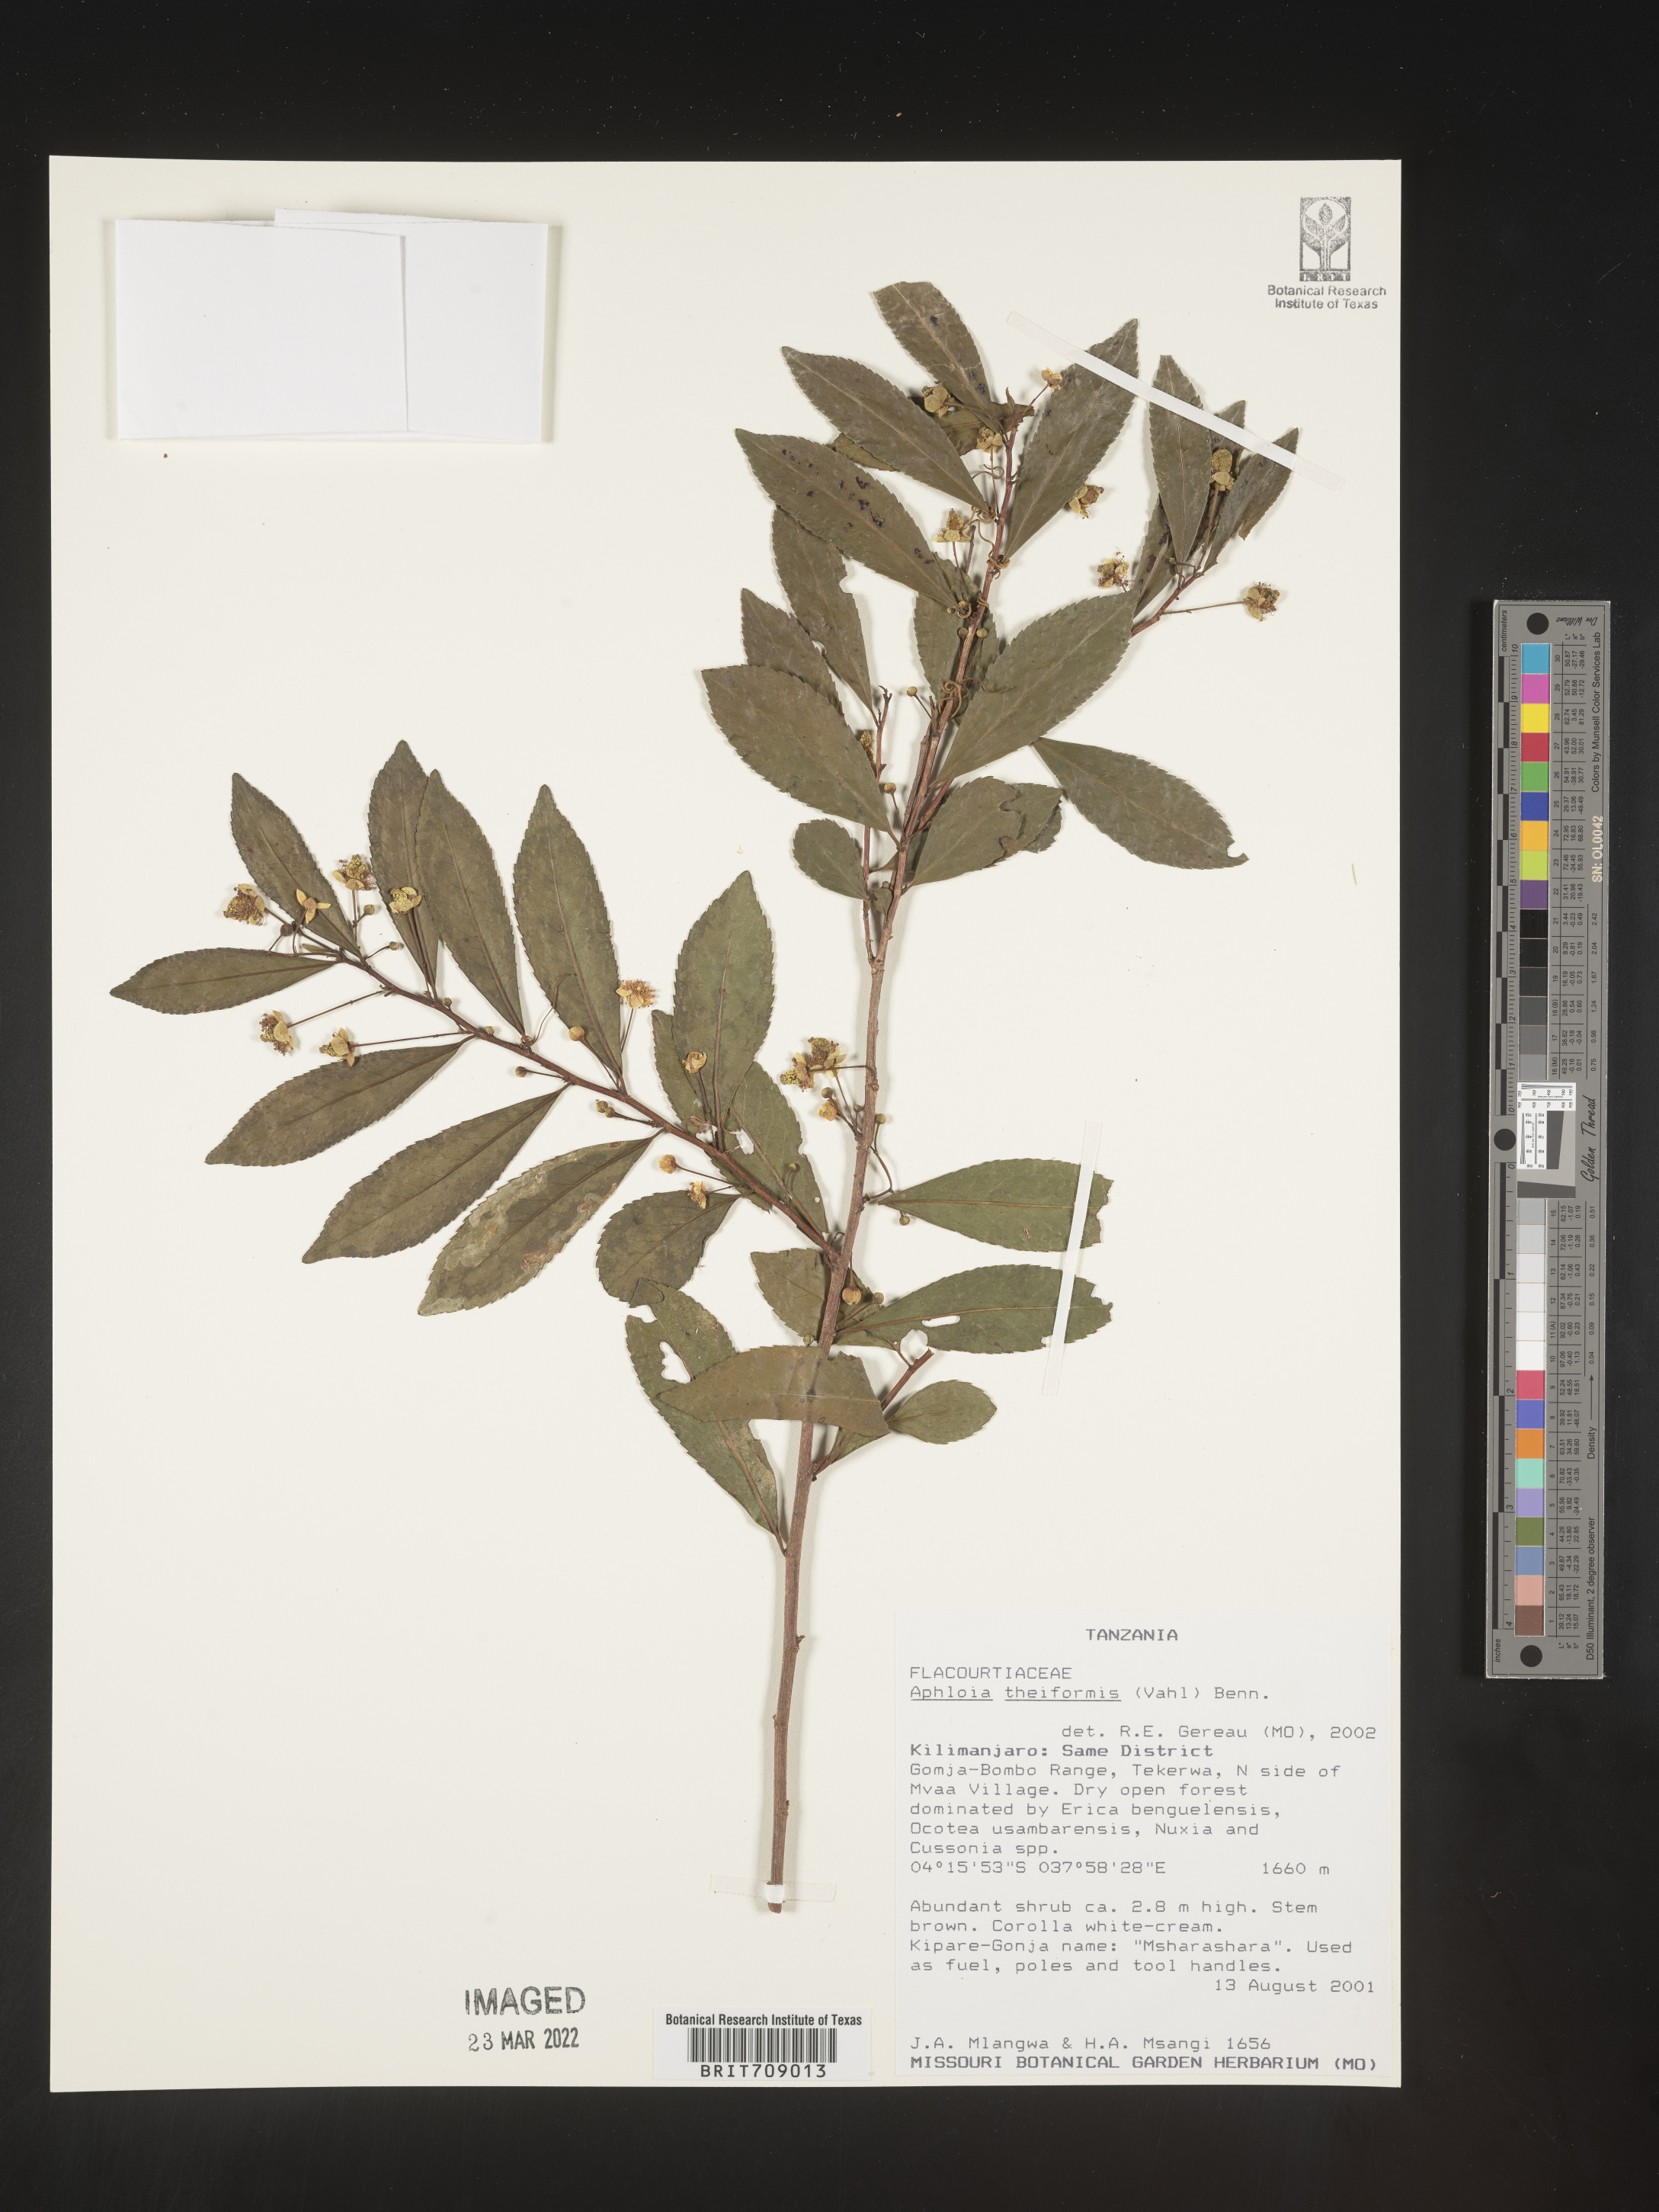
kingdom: Plantae
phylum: Tracheophyta
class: Magnoliopsida
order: Crossosomatales
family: Aphloiaceae
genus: Aphloia
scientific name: Aphloia
